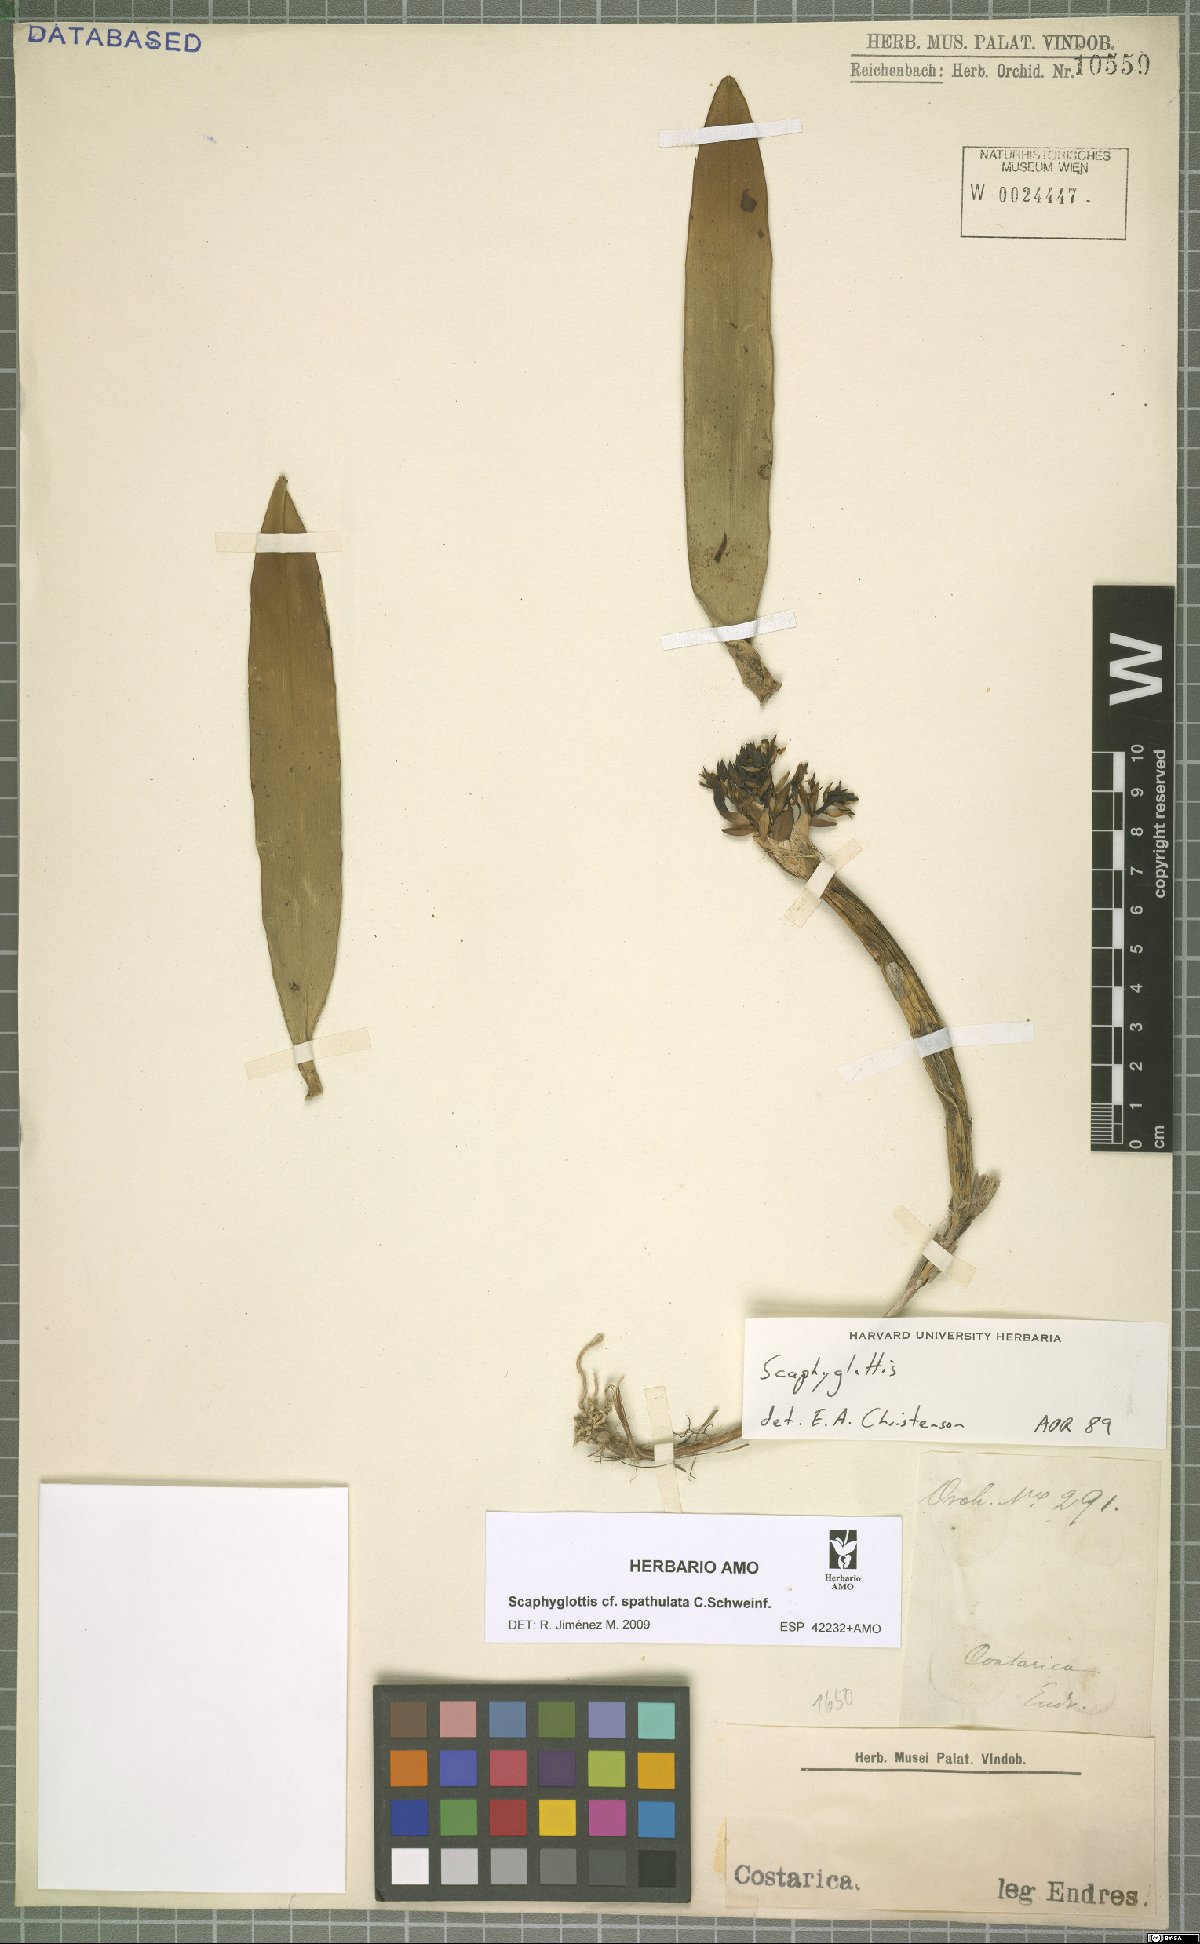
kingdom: Plantae
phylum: Tracheophyta
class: Liliopsida
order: Asparagales
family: Orchidaceae
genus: Scaphyglottis
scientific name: Scaphyglottis spathulata
